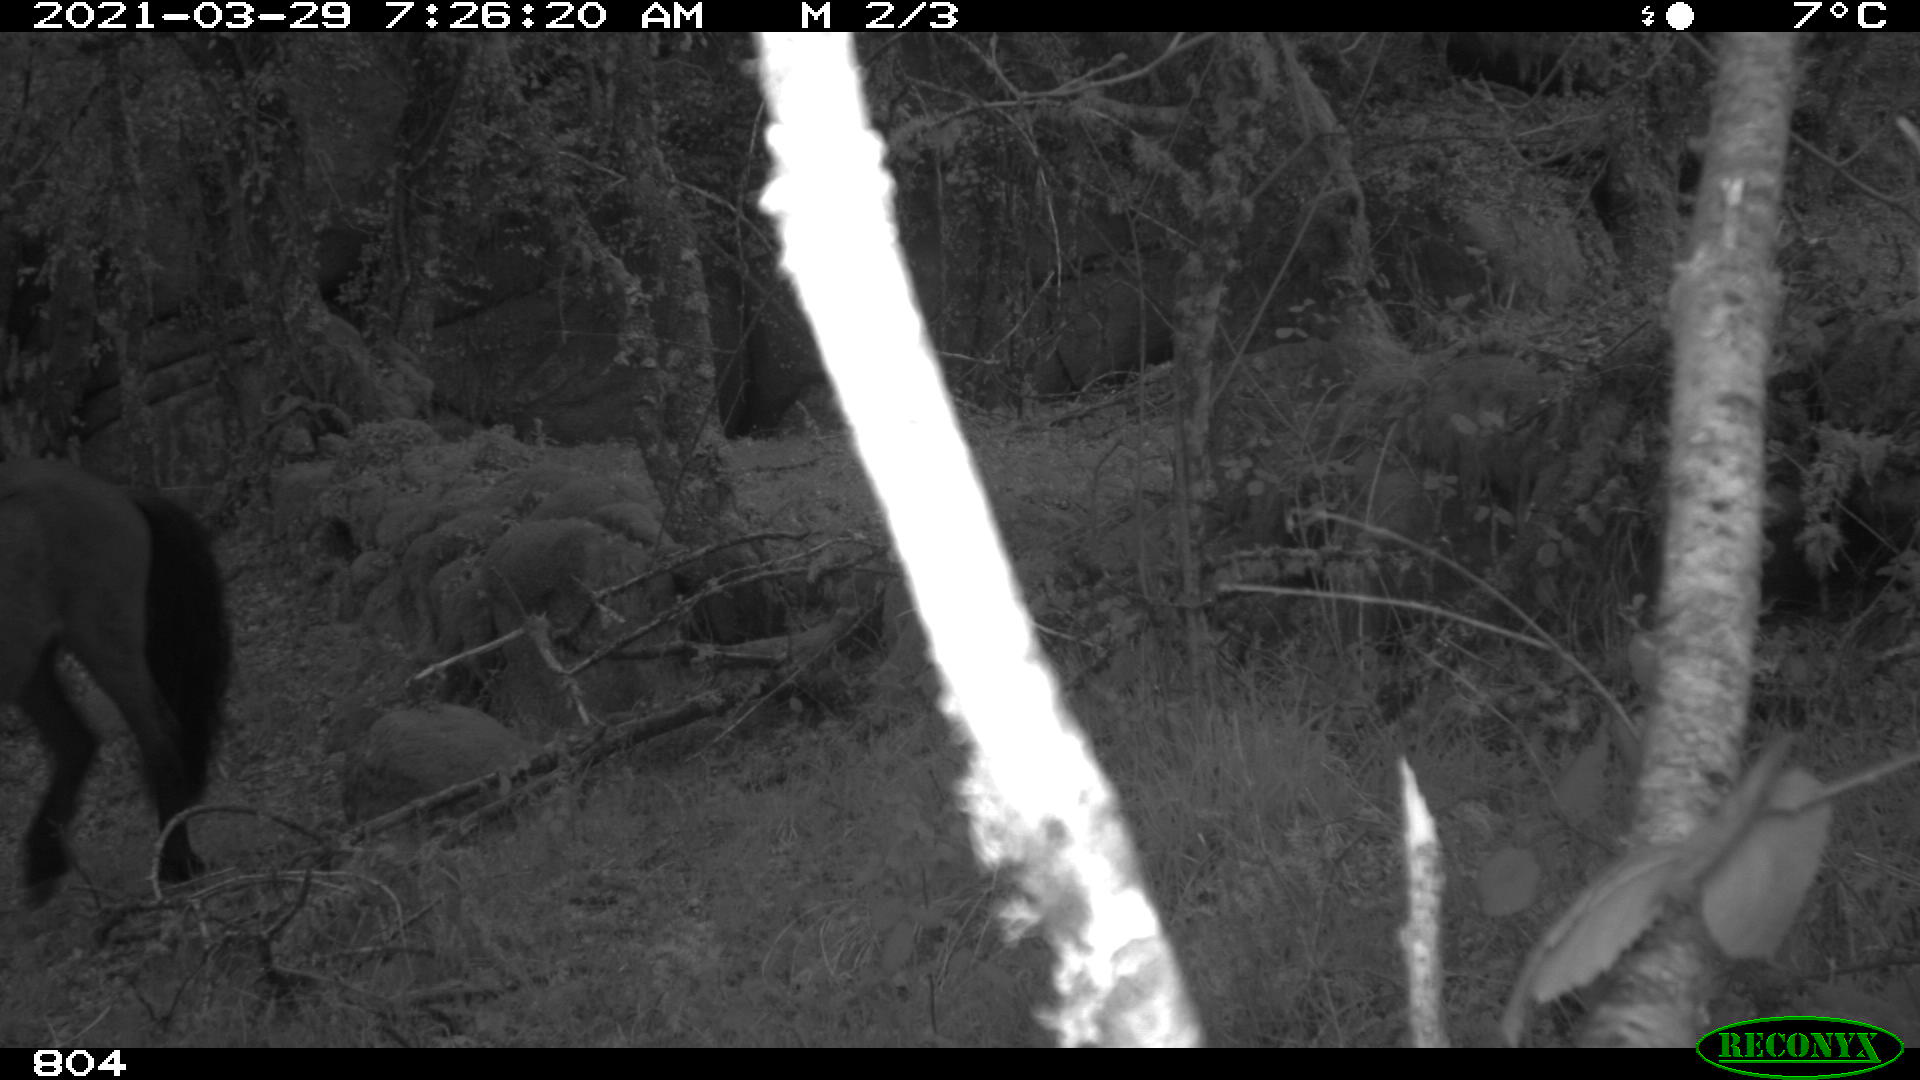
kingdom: Animalia
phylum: Chordata
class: Mammalia
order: Perissodactyla
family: Equidae
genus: Equus
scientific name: Equus caballus
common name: Horse
